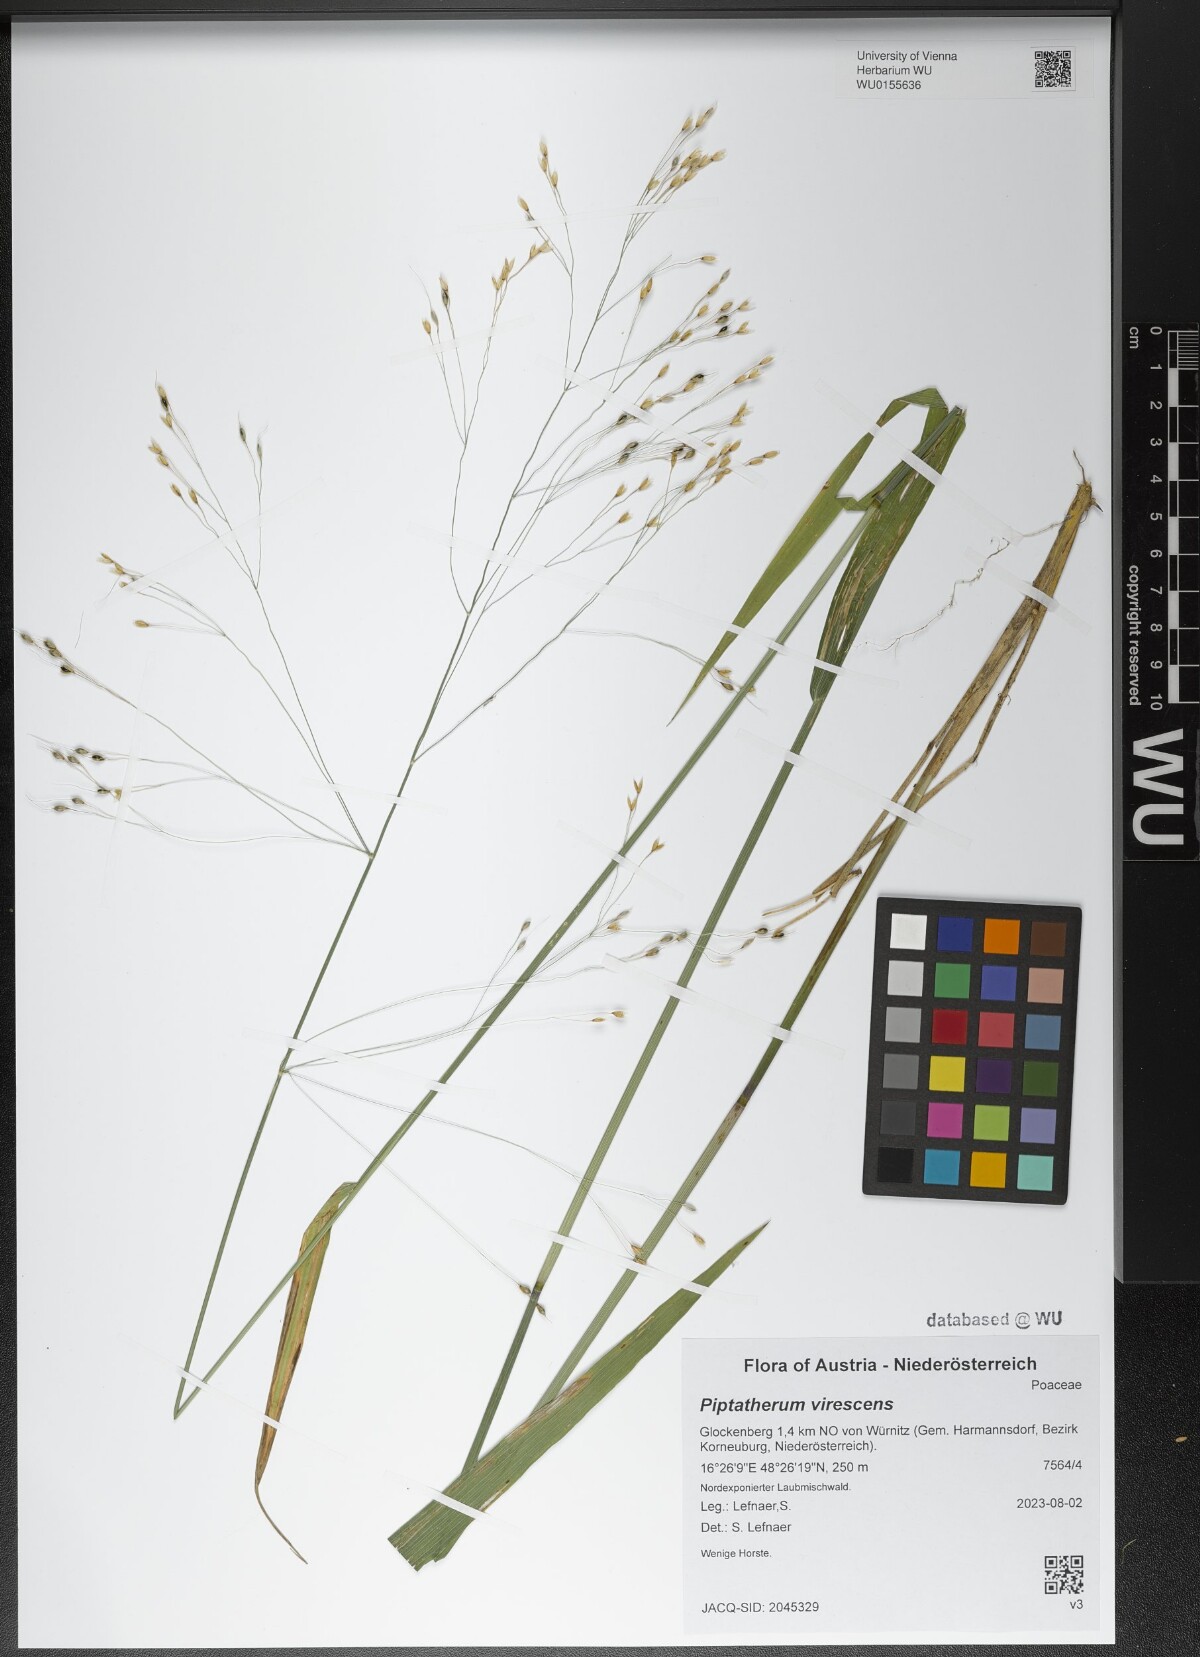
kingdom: Plantae
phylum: Tracheophyta
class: Liliopsida
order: Poales
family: Poaceae
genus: Achnatherum
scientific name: Achnatherum virescens
